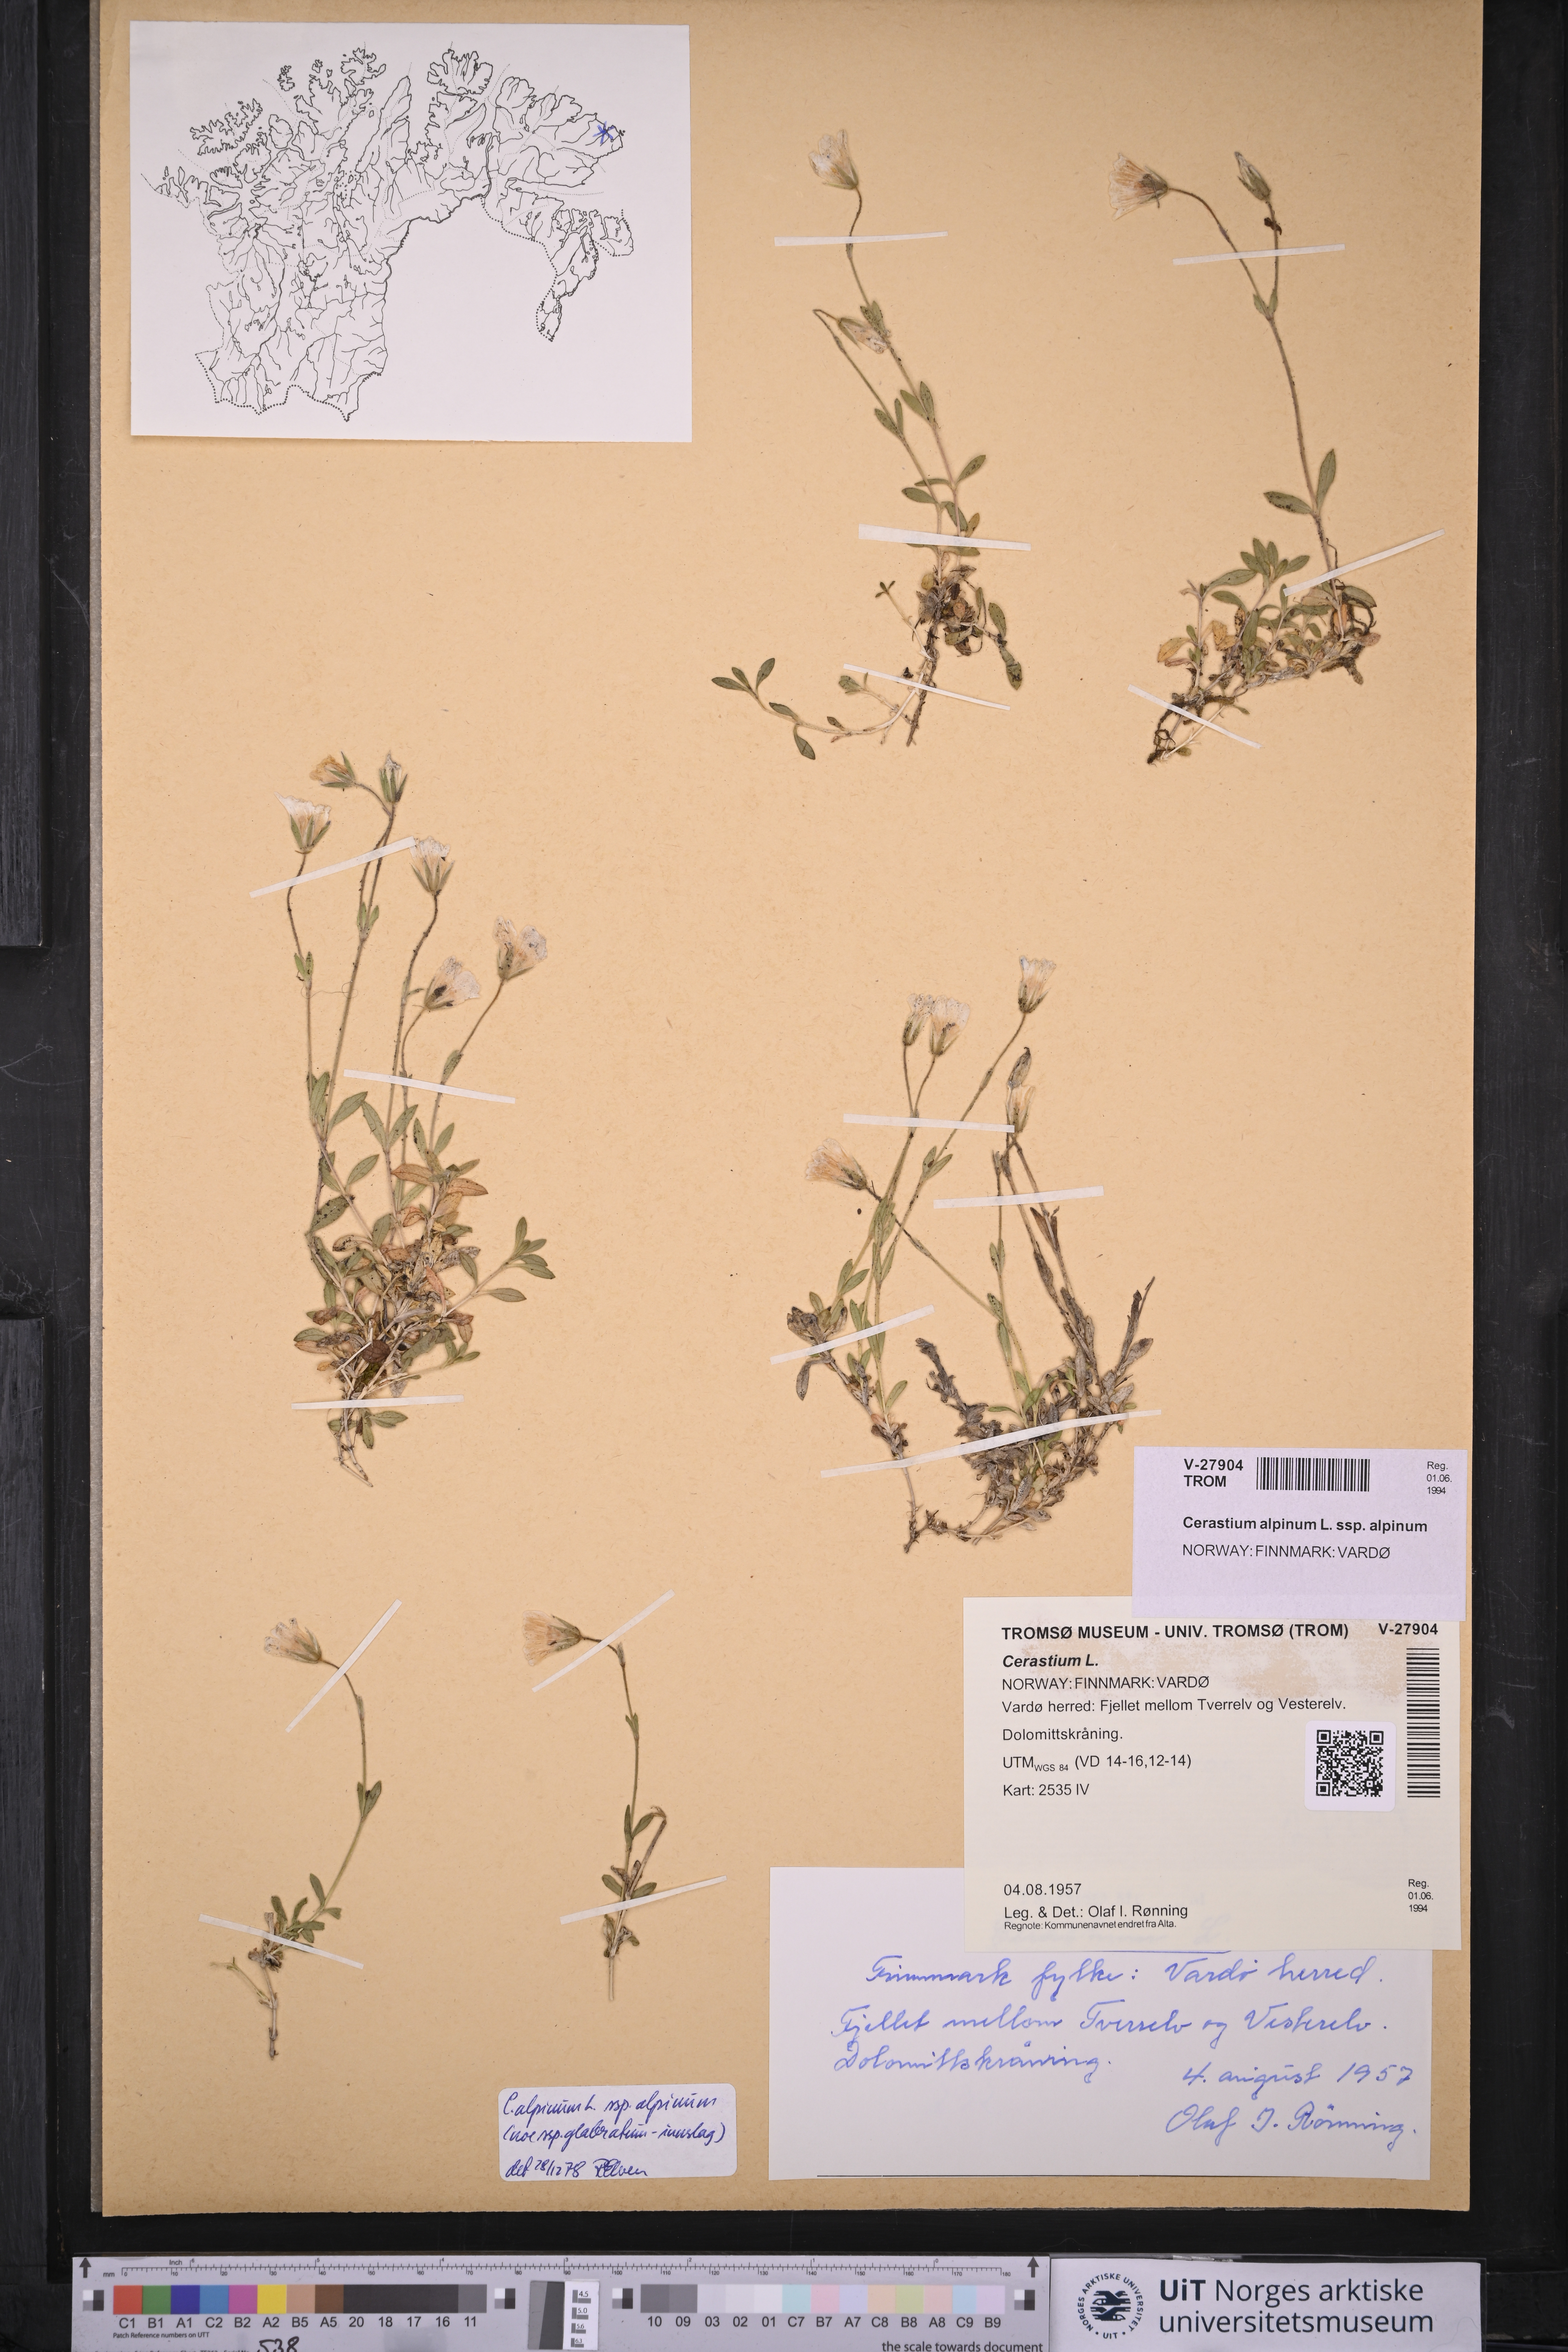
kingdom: Plantae
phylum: Tracheophyta
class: Magnoliopsida
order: Caryophyllales
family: Caryophyllaceae
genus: Cerastium
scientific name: Cerastium alpinum
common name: Alpine mouse-ear
